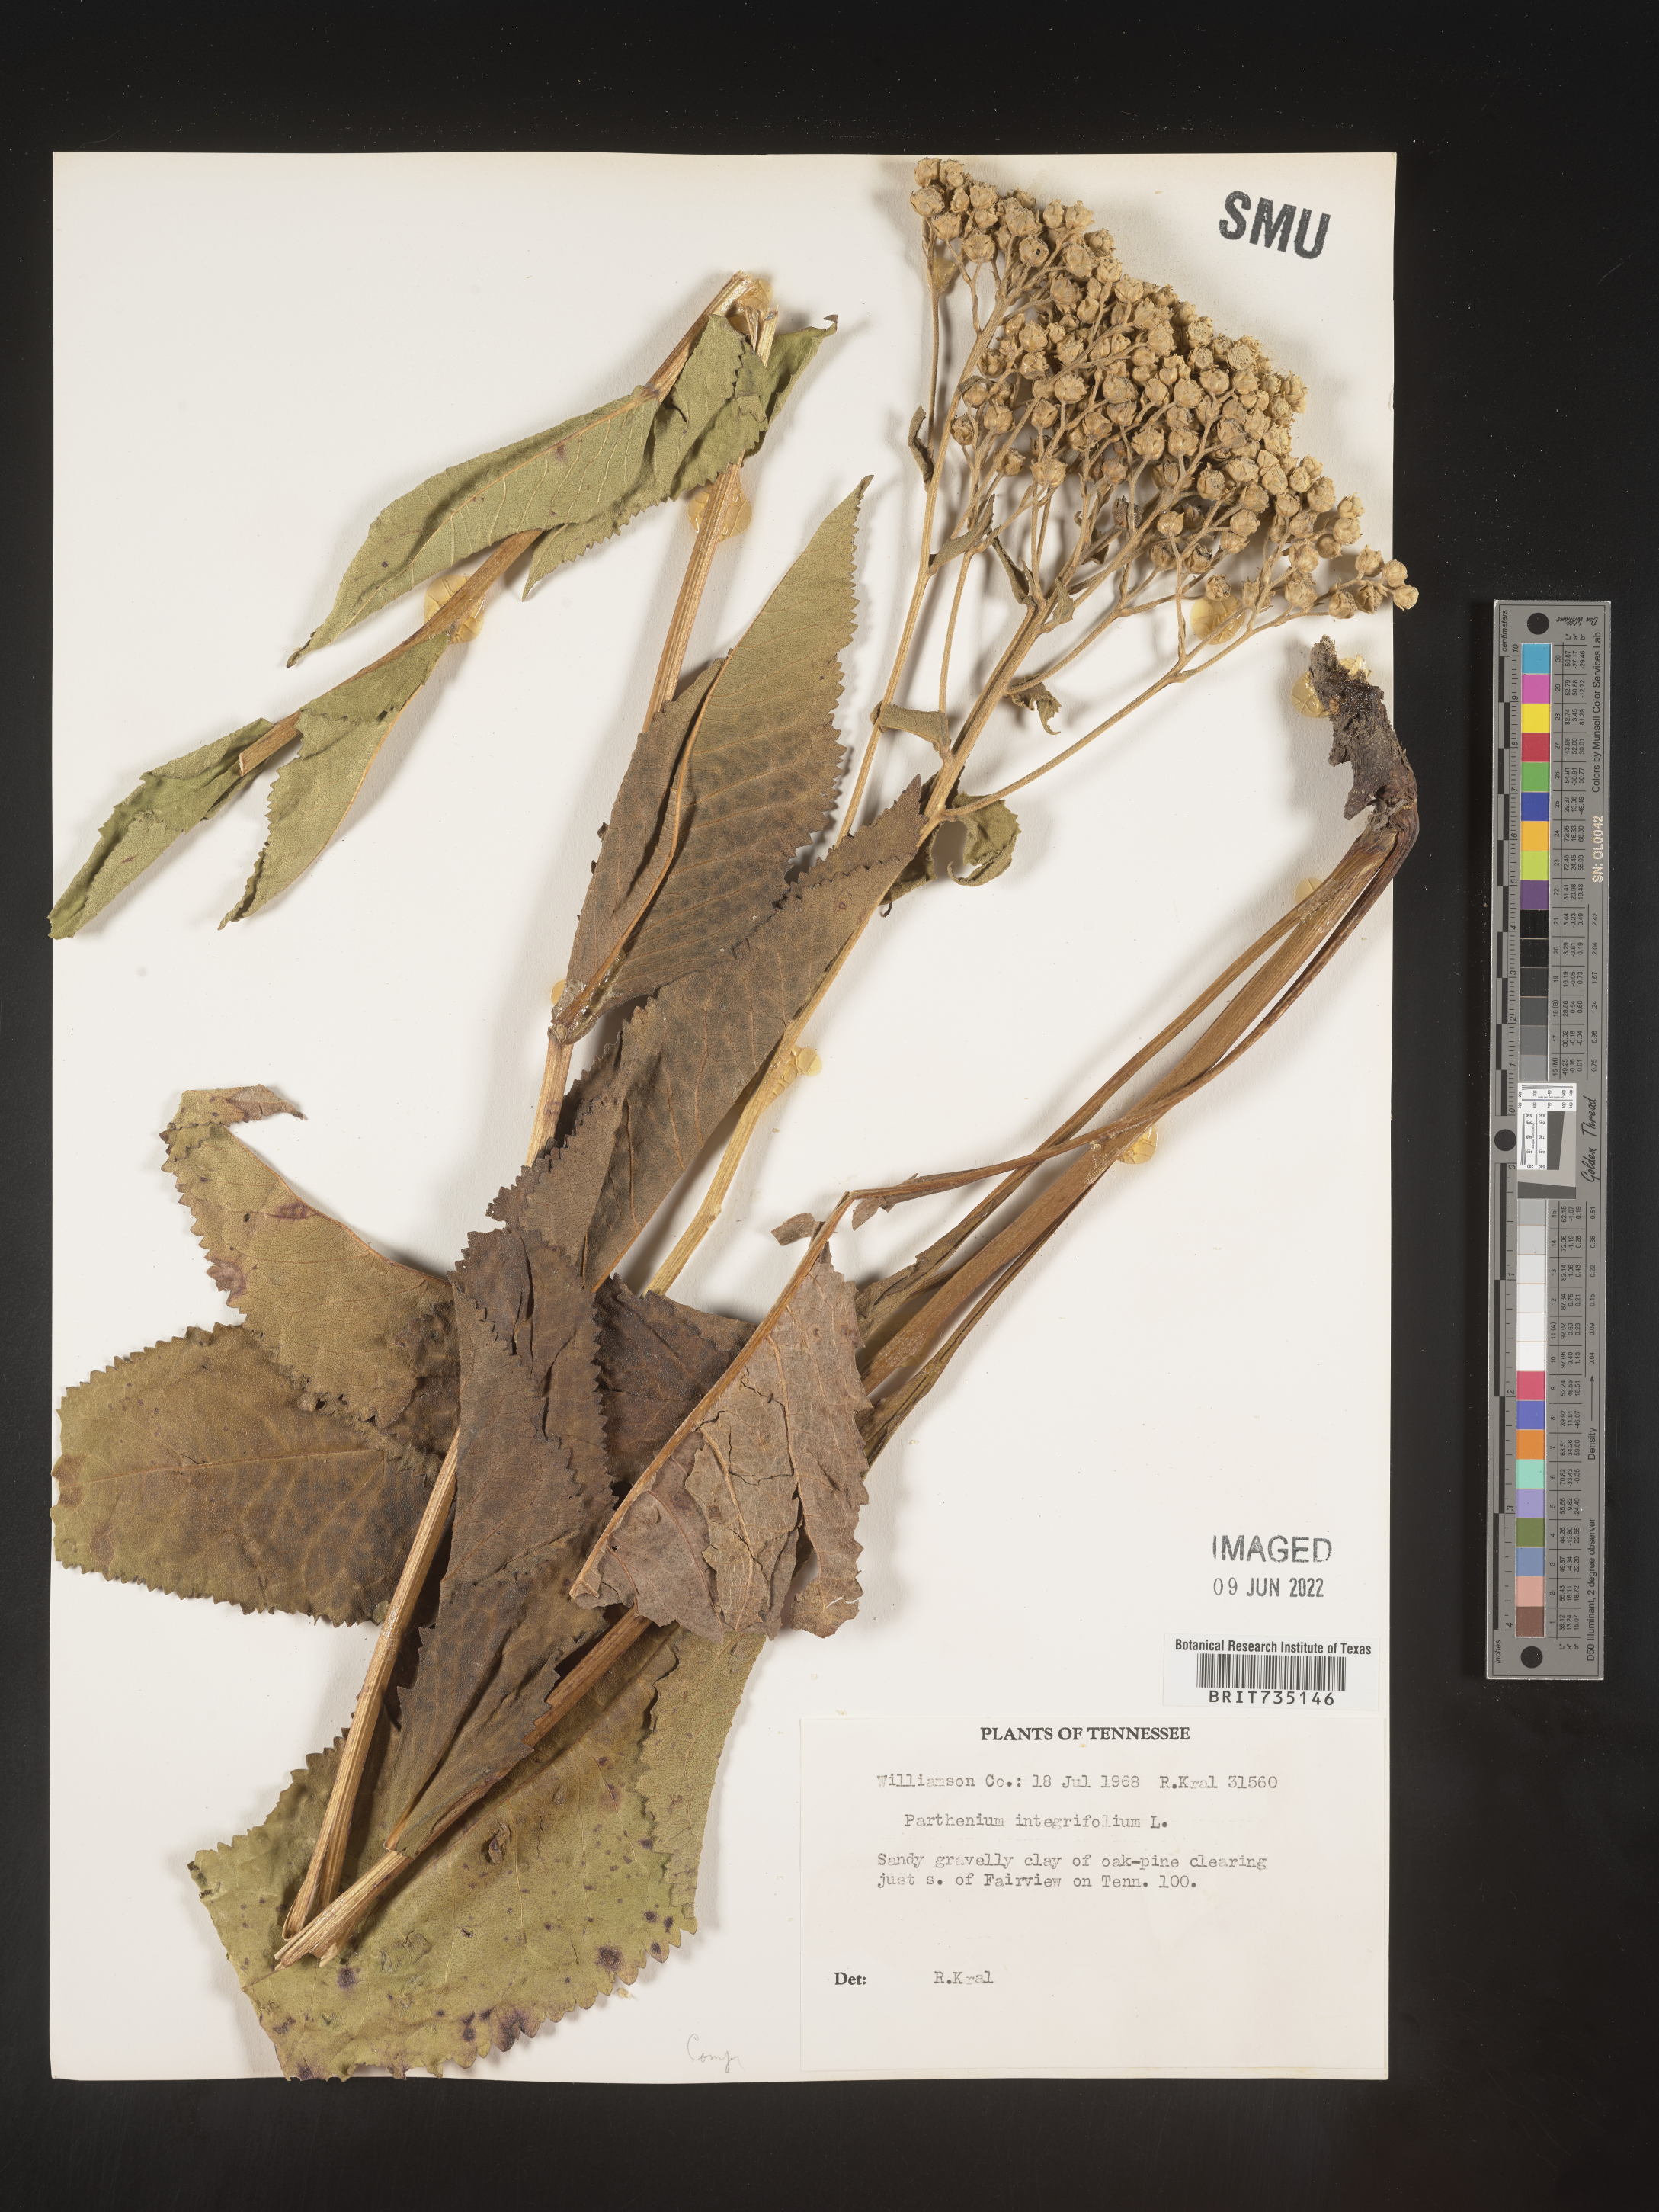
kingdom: Plantae
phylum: Tracheophyta
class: Magnoliopsida
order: Asterales
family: Asteraceae
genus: Parthenium
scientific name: Parthenium integrifolium
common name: American feverfew
